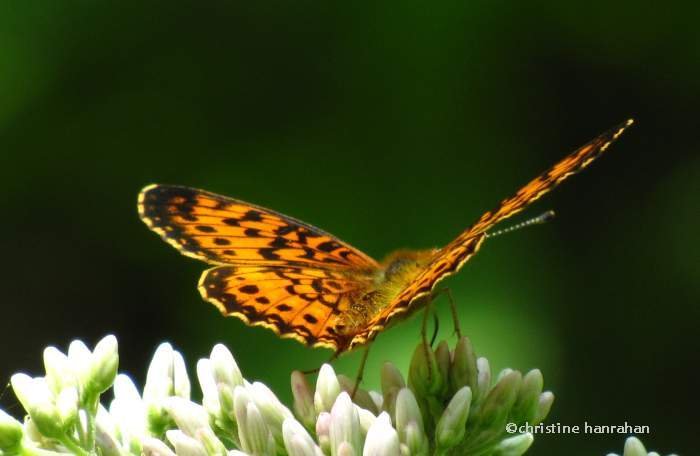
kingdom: Animalia
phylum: Arthropoda
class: Insecta
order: Lepidoptera
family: Nymphalidae
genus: Boloria
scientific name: Boloria selene
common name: Silver-bordered Fritillary
